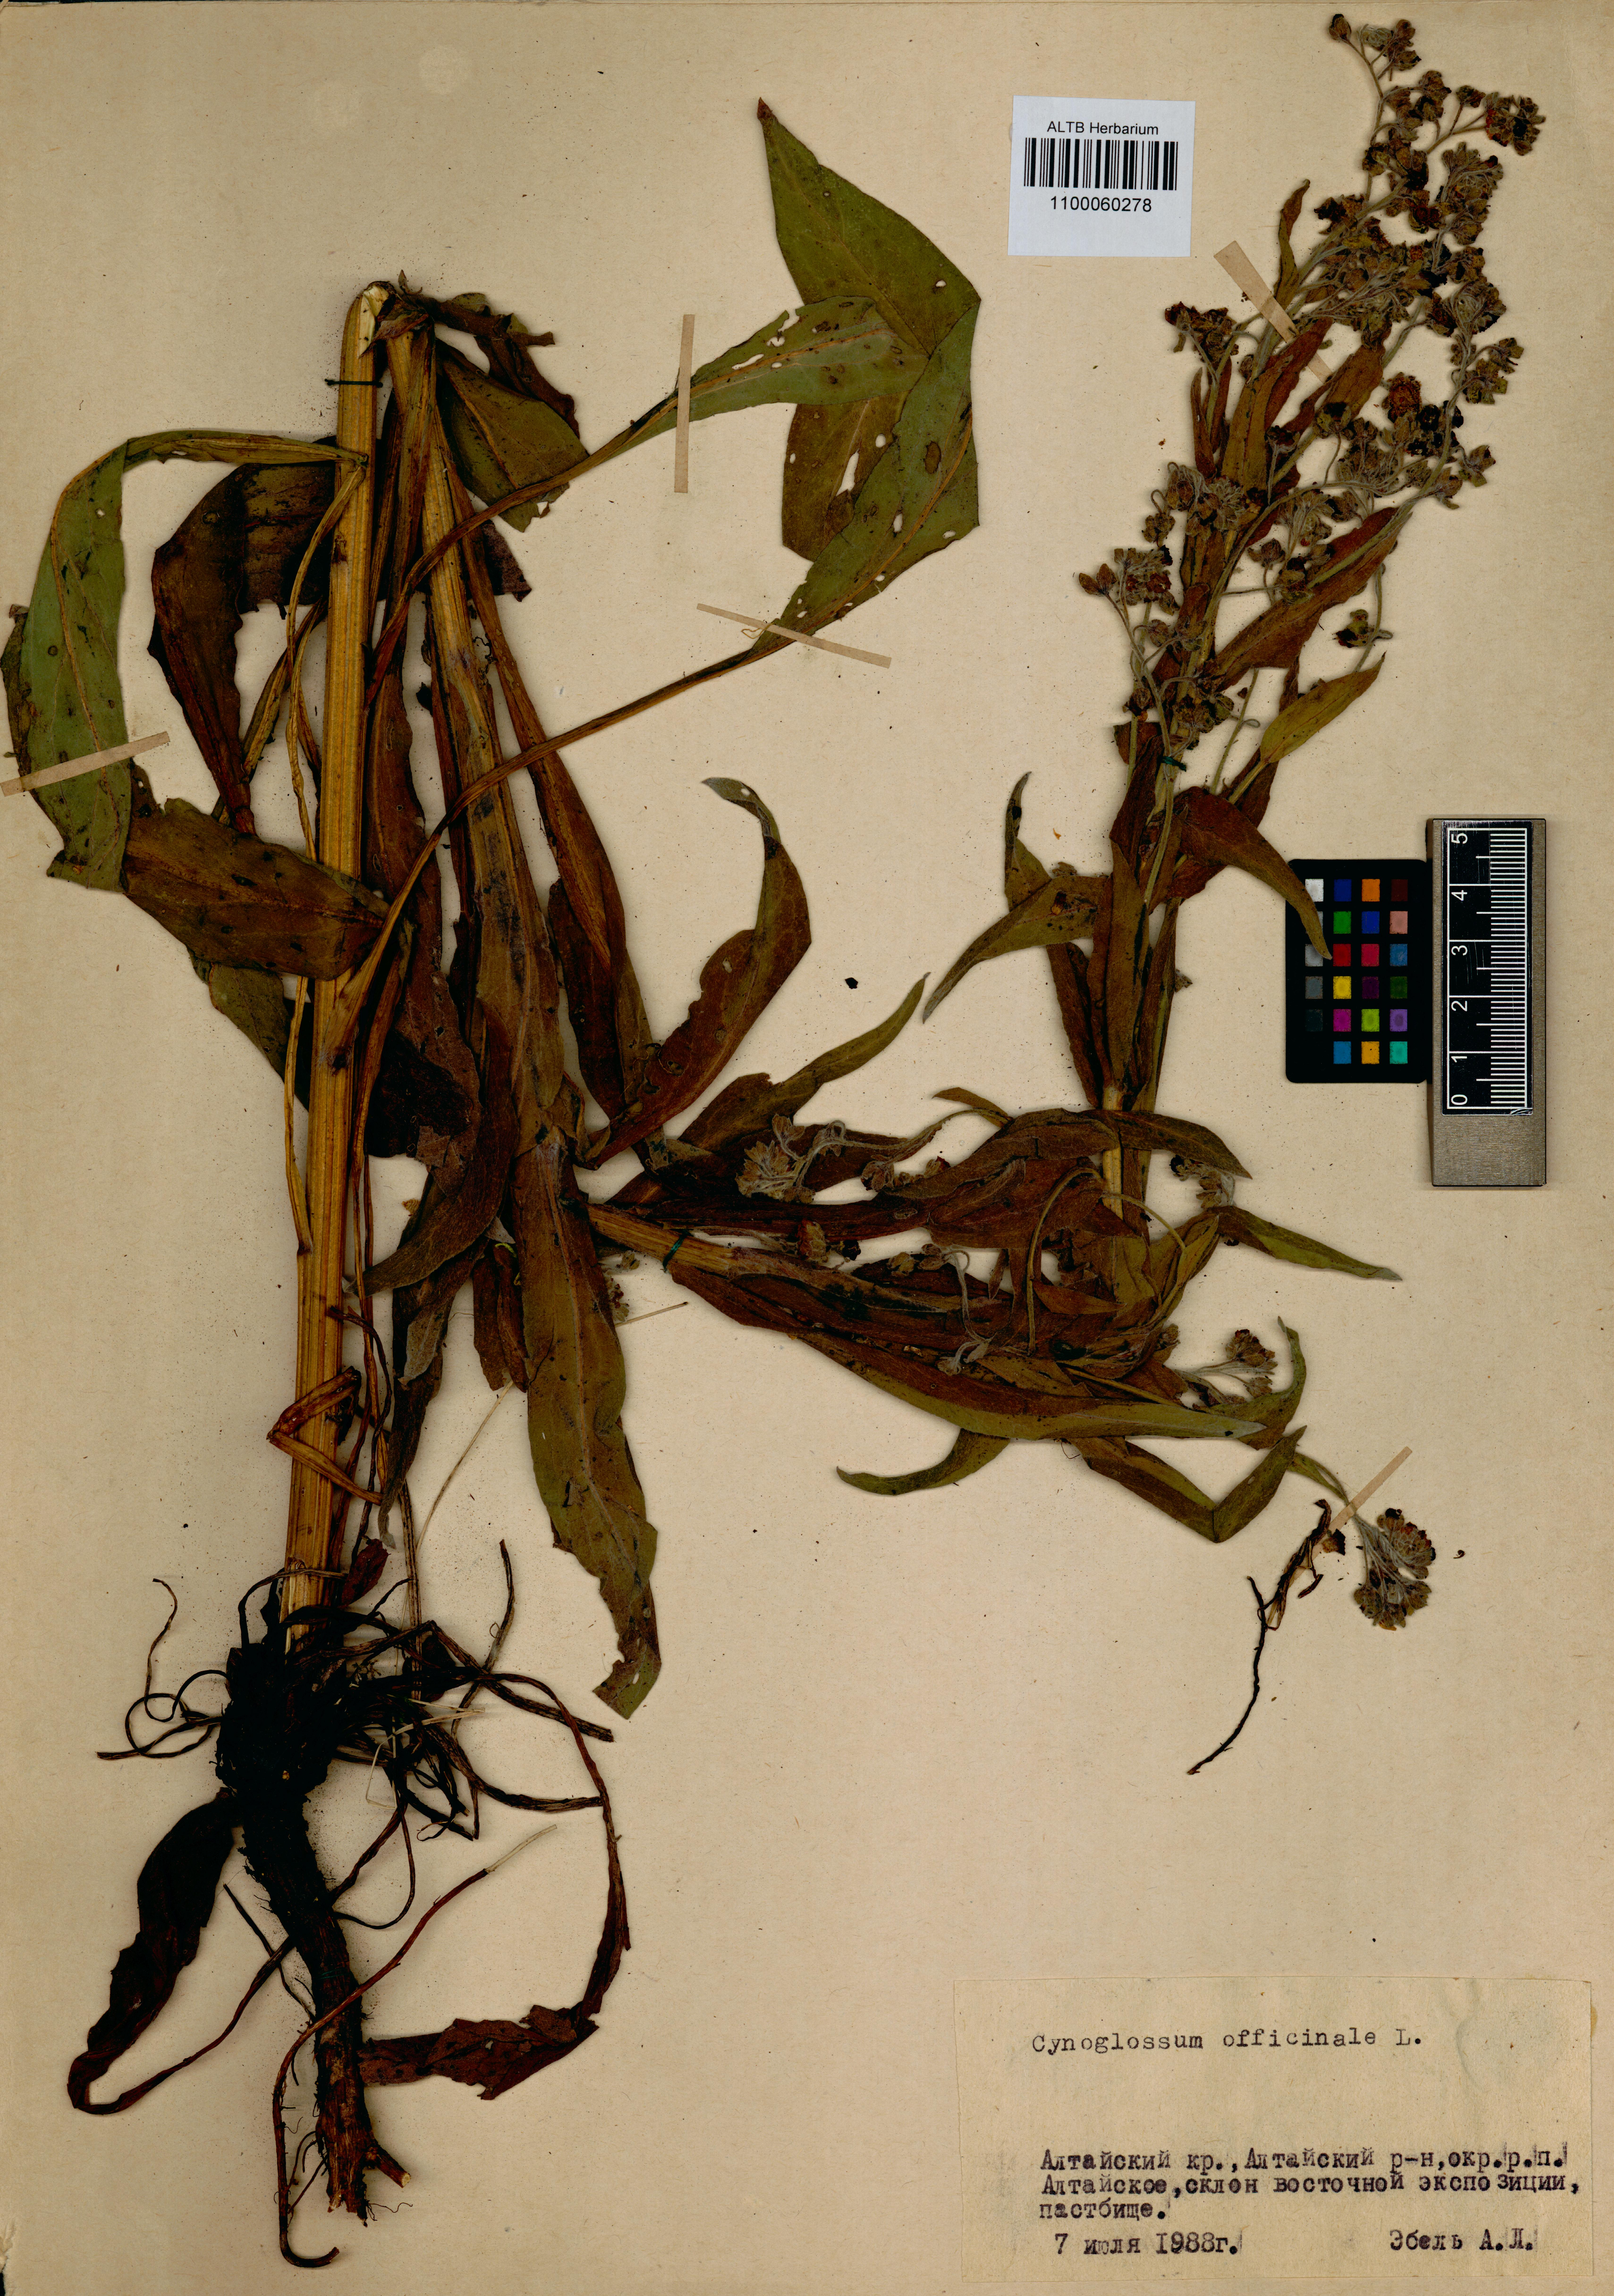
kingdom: Plantae
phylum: Tracheophyta
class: Magnoliopsida
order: Boraginales
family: Boraginaceae
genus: Cynoglossum
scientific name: Cynoglossum officinale
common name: Hound's-tongue
